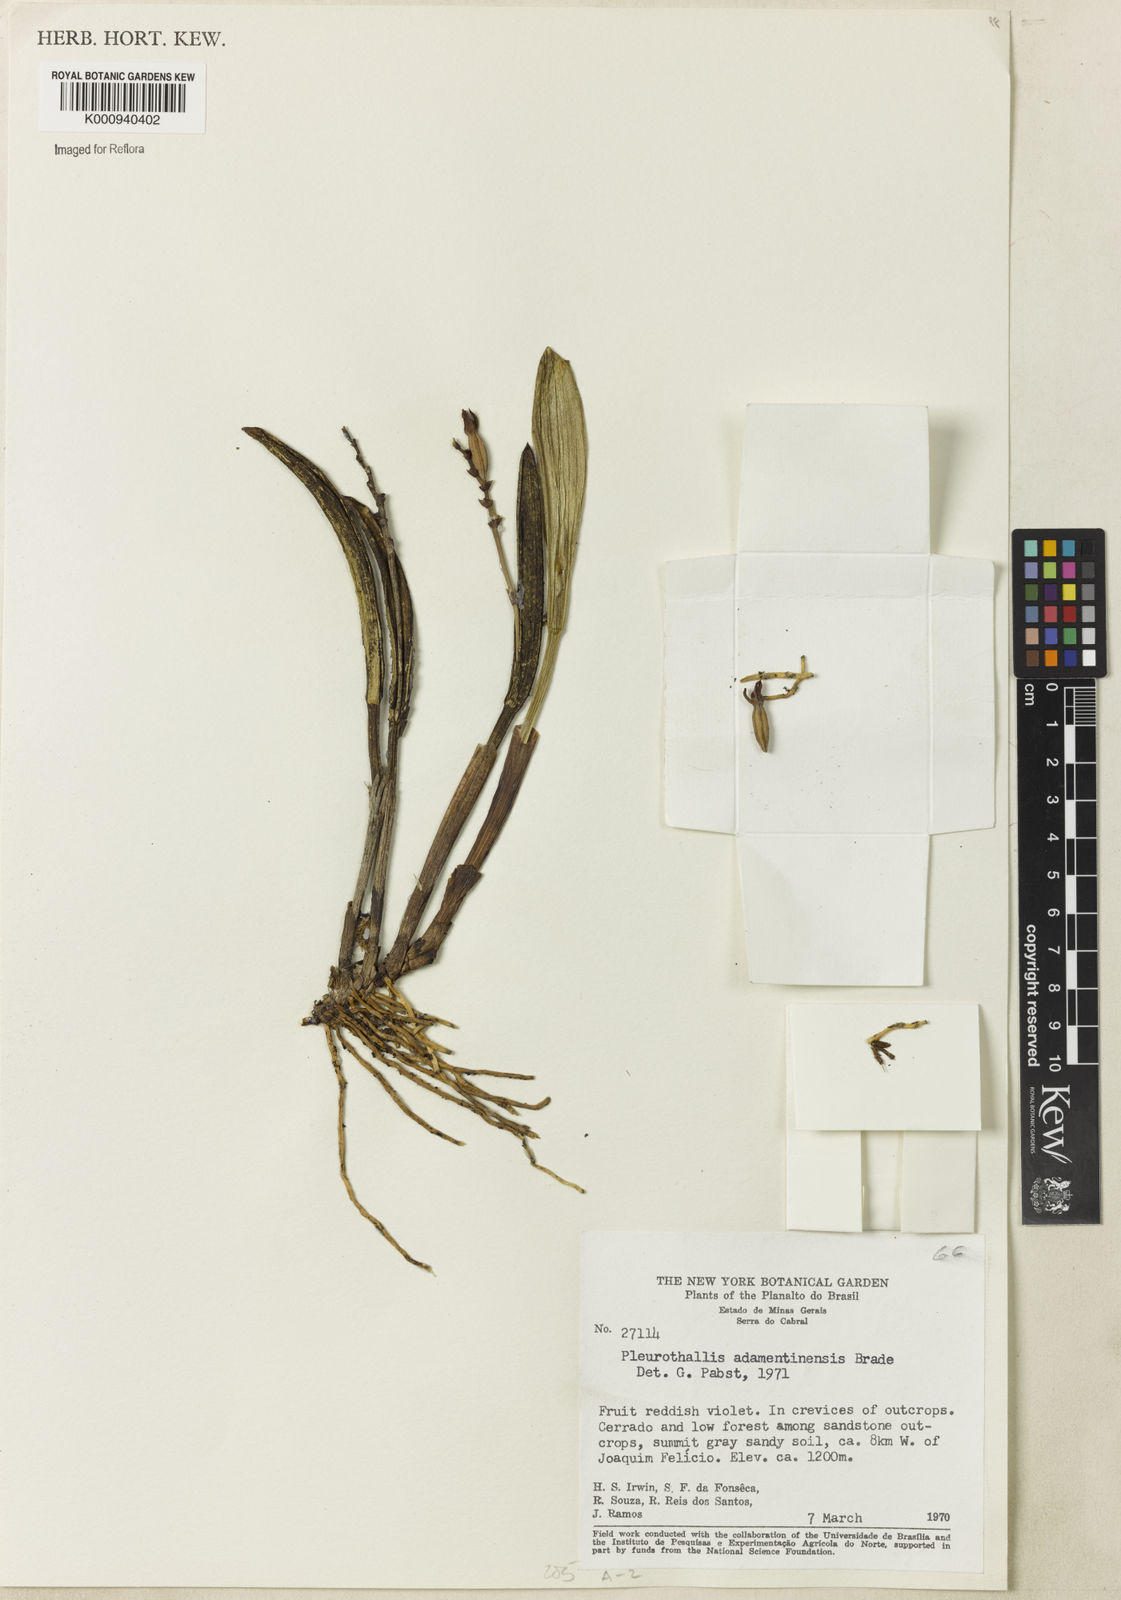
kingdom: Plantae
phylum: Tracheophyta
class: Liliopsida
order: Asparagales
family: Orchidaceae
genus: Acianthera
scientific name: Acianthera adamantinensis
